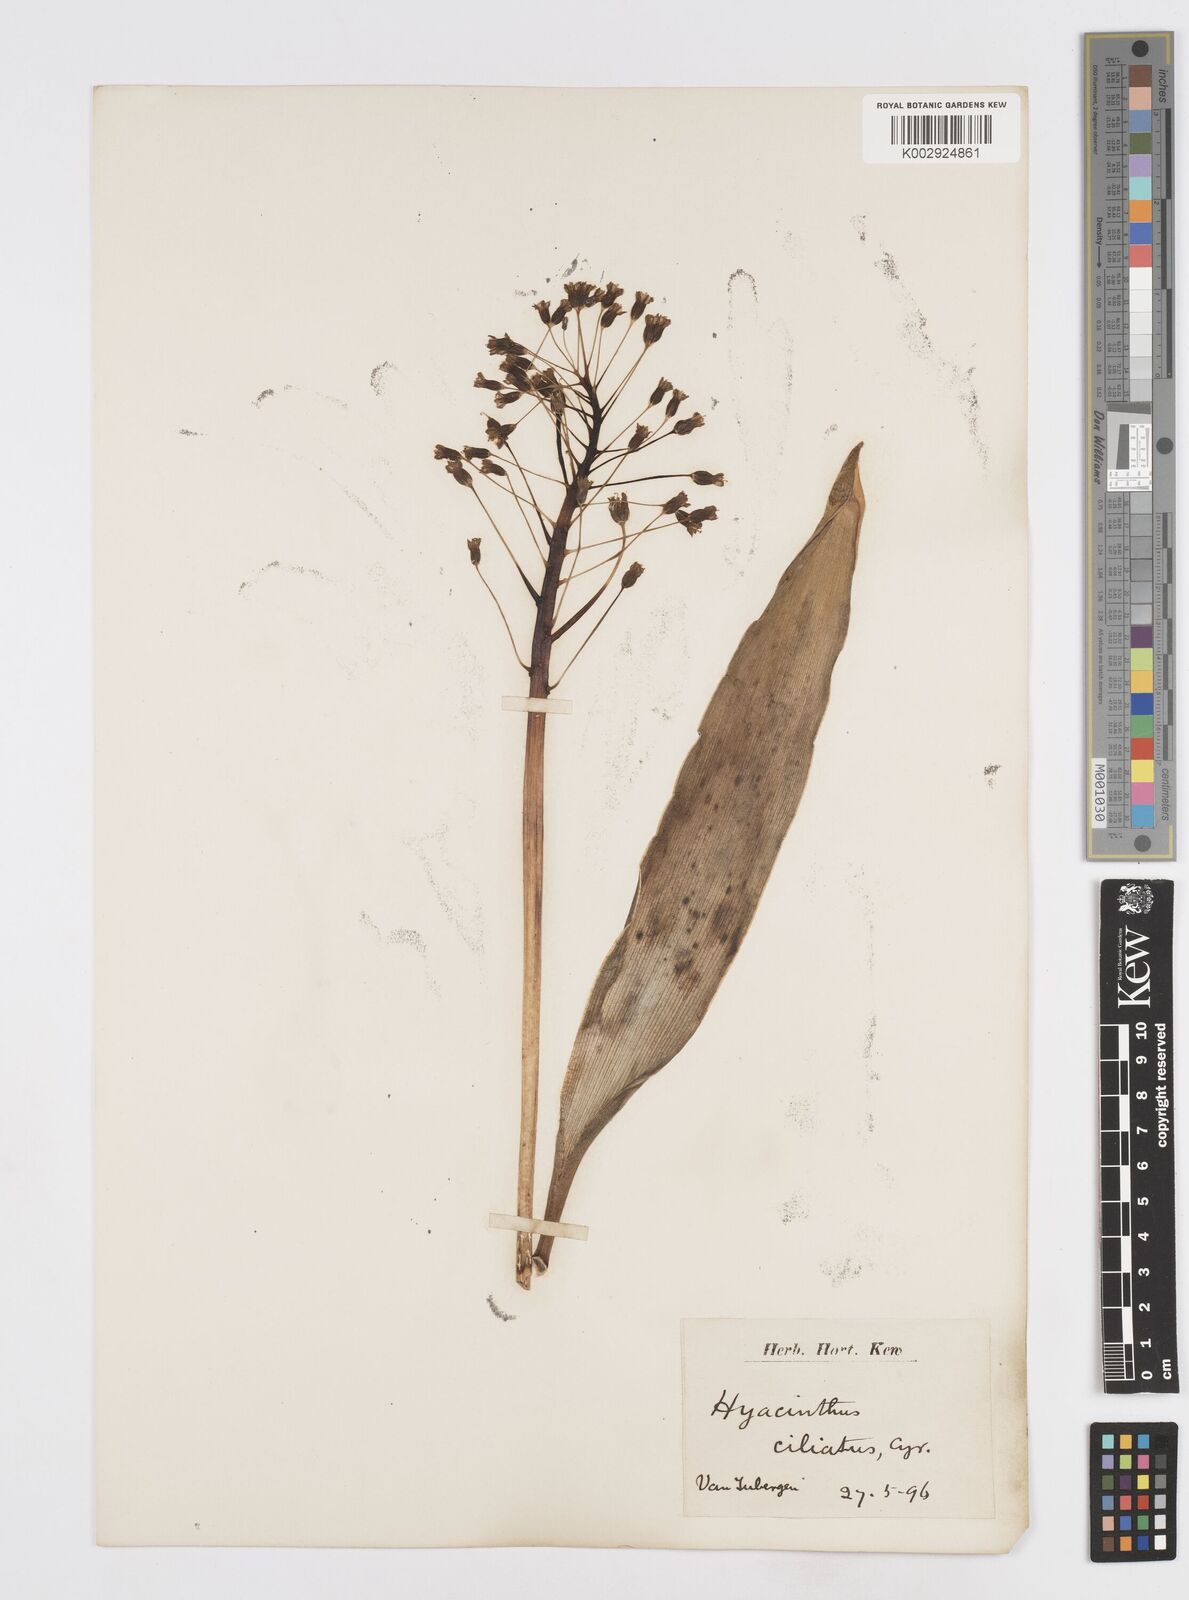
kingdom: Plantae
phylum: Tracheophyta
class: Liliopsida
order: Asparagales
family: Asparagaceae
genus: Bellevalia
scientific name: Bellevalia ciliata
